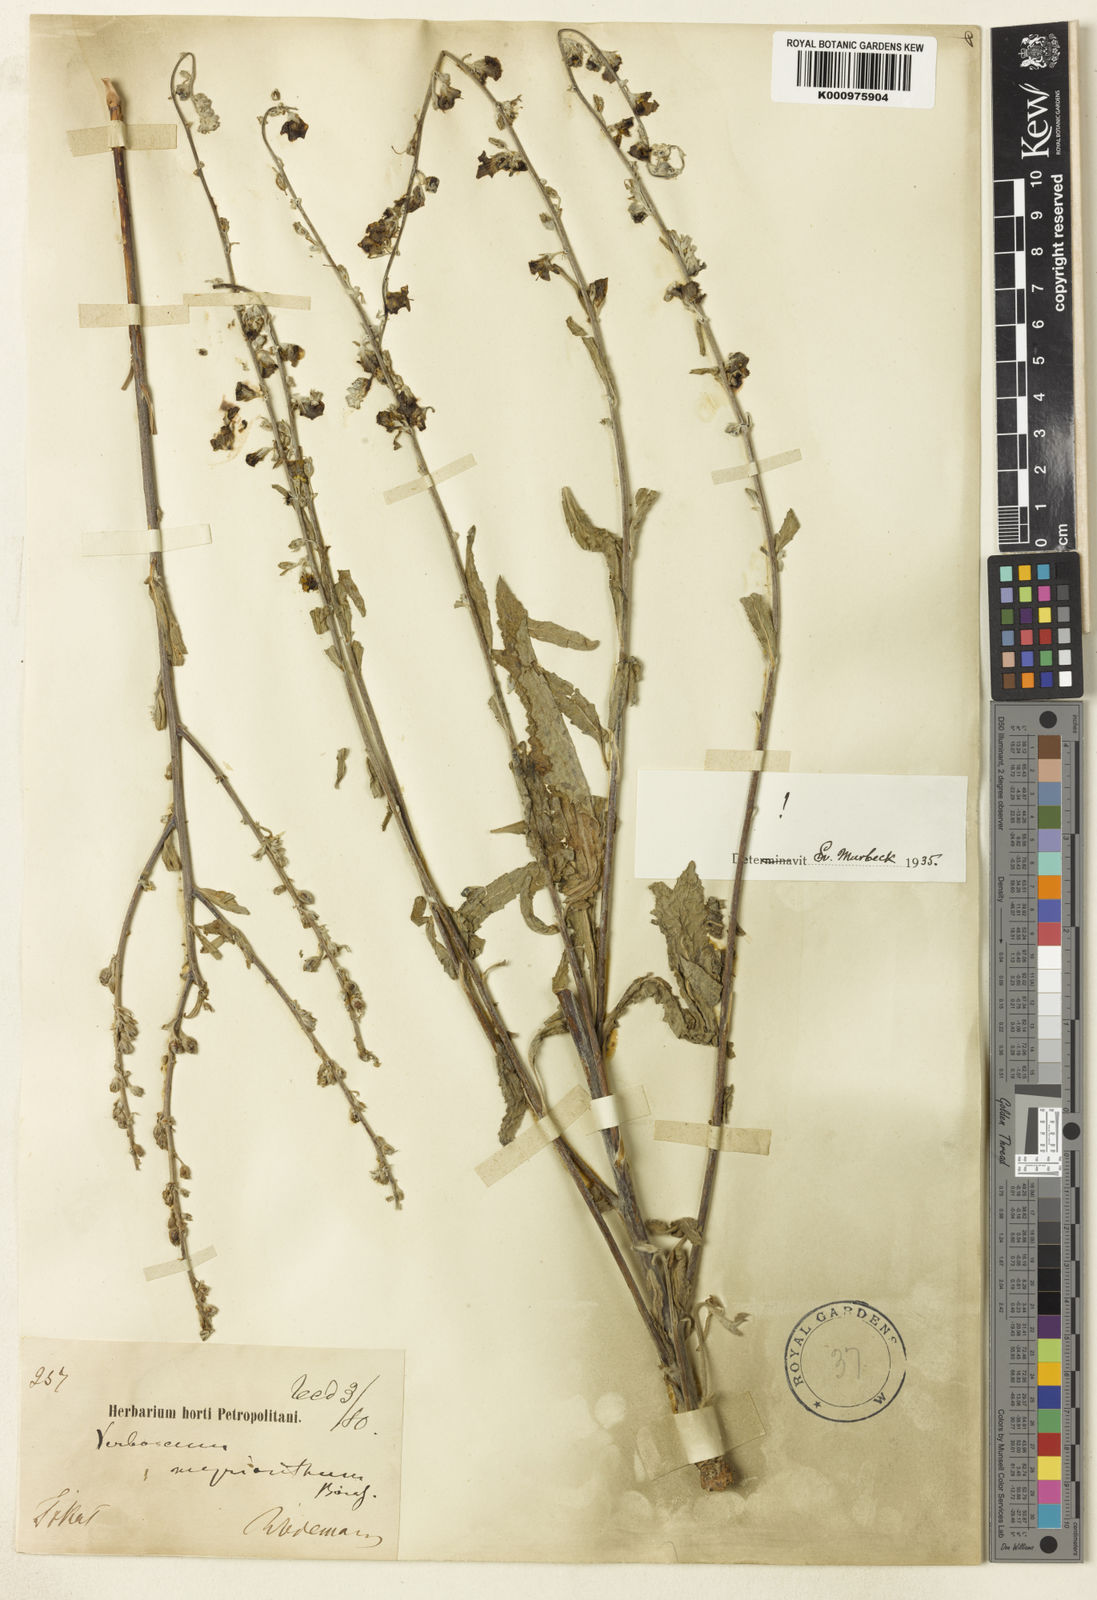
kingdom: Plantae
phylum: Tracheophyta
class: Magnoliopsida
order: Lamiales
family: Scrophulariaceae
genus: Verbascum
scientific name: Verbascum myrianthum
